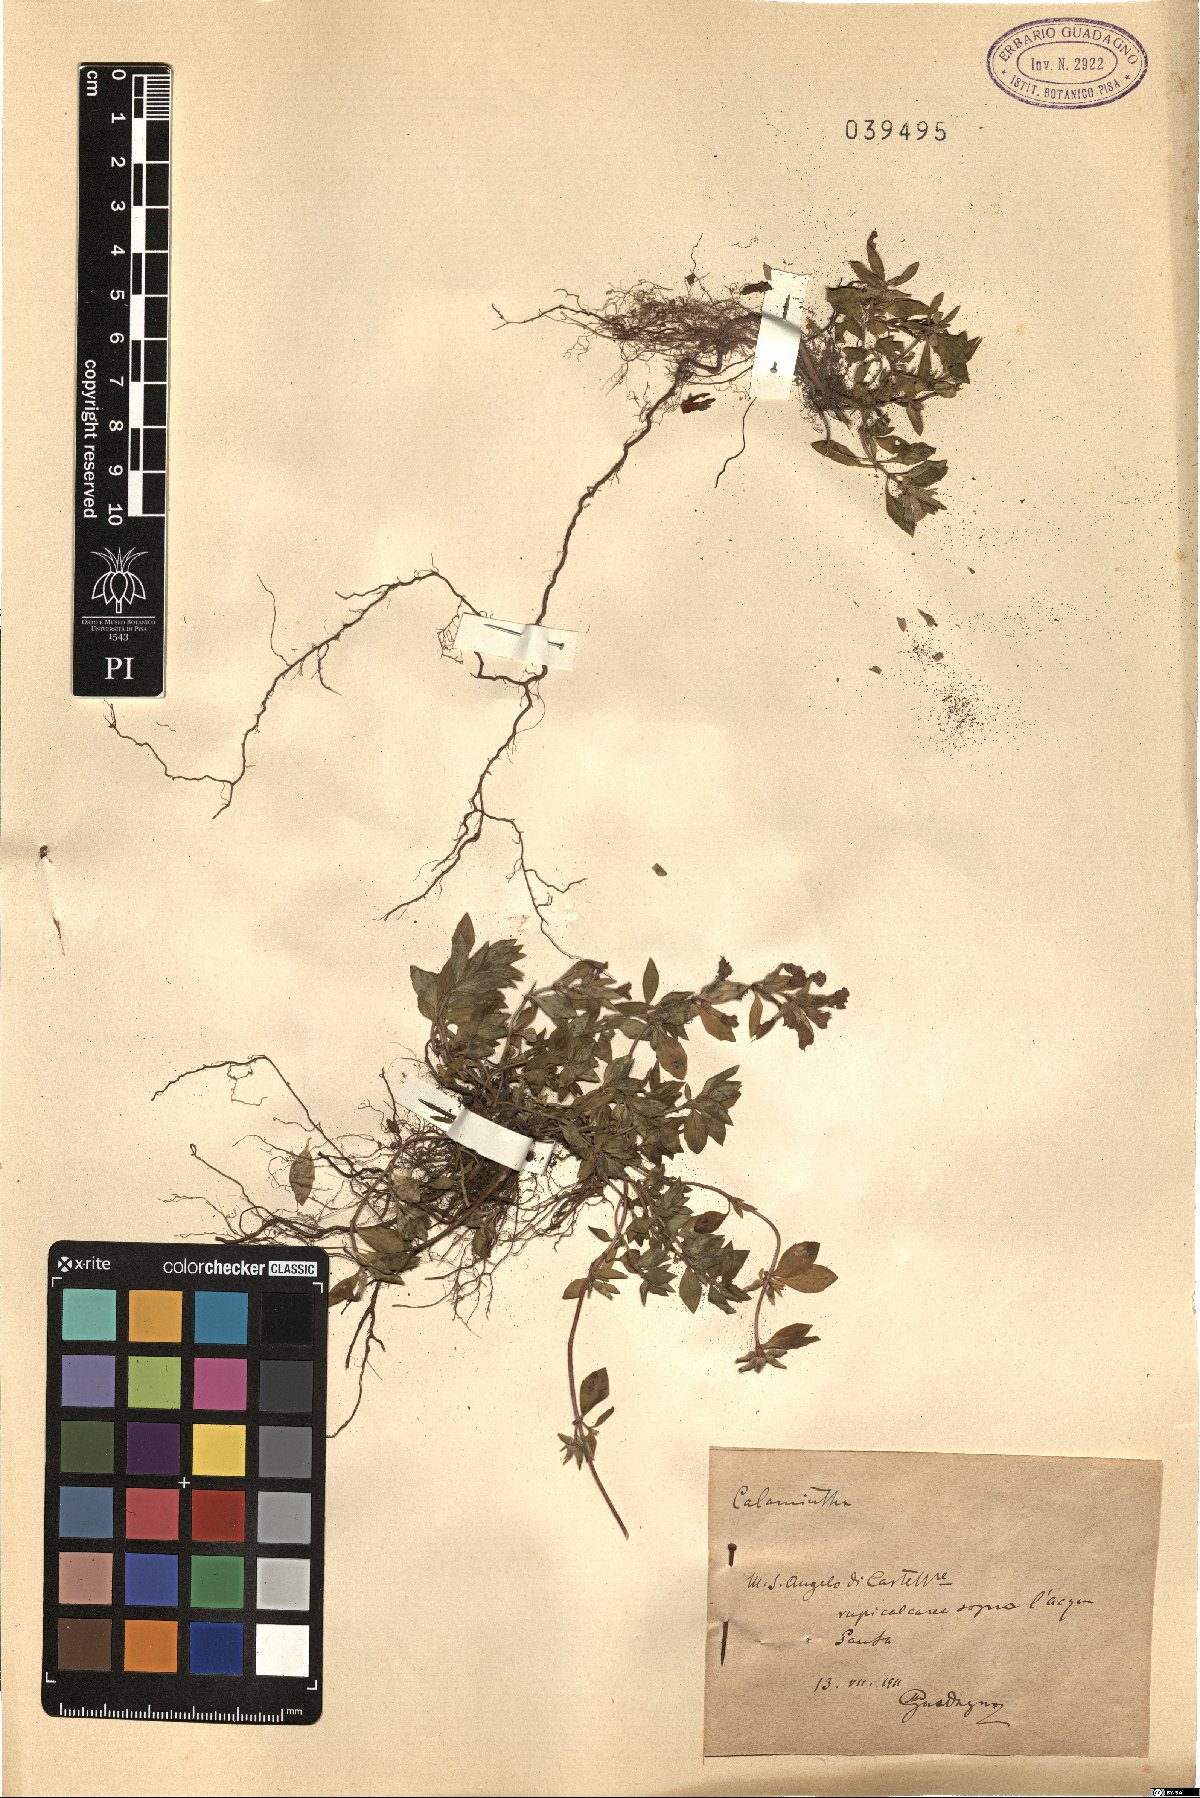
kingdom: Plantae
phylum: Tracheophyta
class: Magnoliopsida
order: Lamiales
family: Lamiaceae
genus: Calamintha
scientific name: Calamintha
